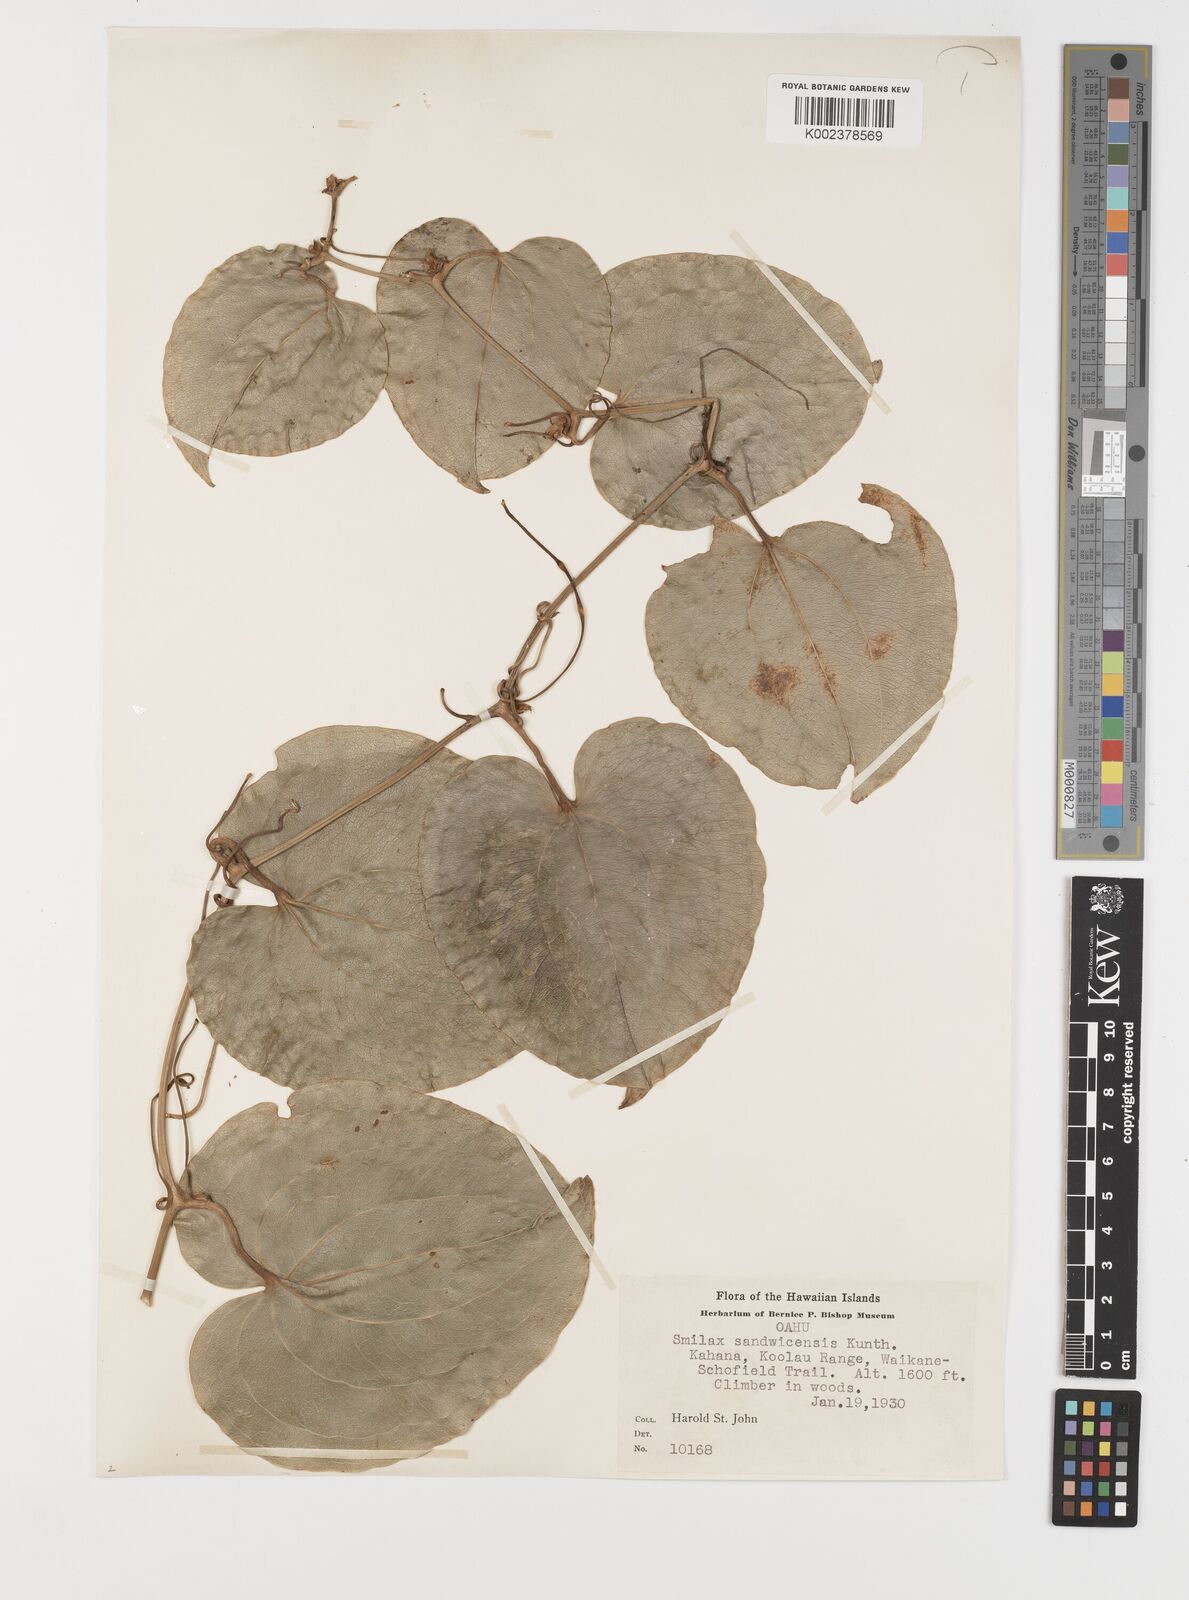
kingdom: Plantae
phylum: Tracheophyta
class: Liliopsida
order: Liliales
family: Smilacaceae
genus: Smilax
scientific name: Smilax melastomifolia
